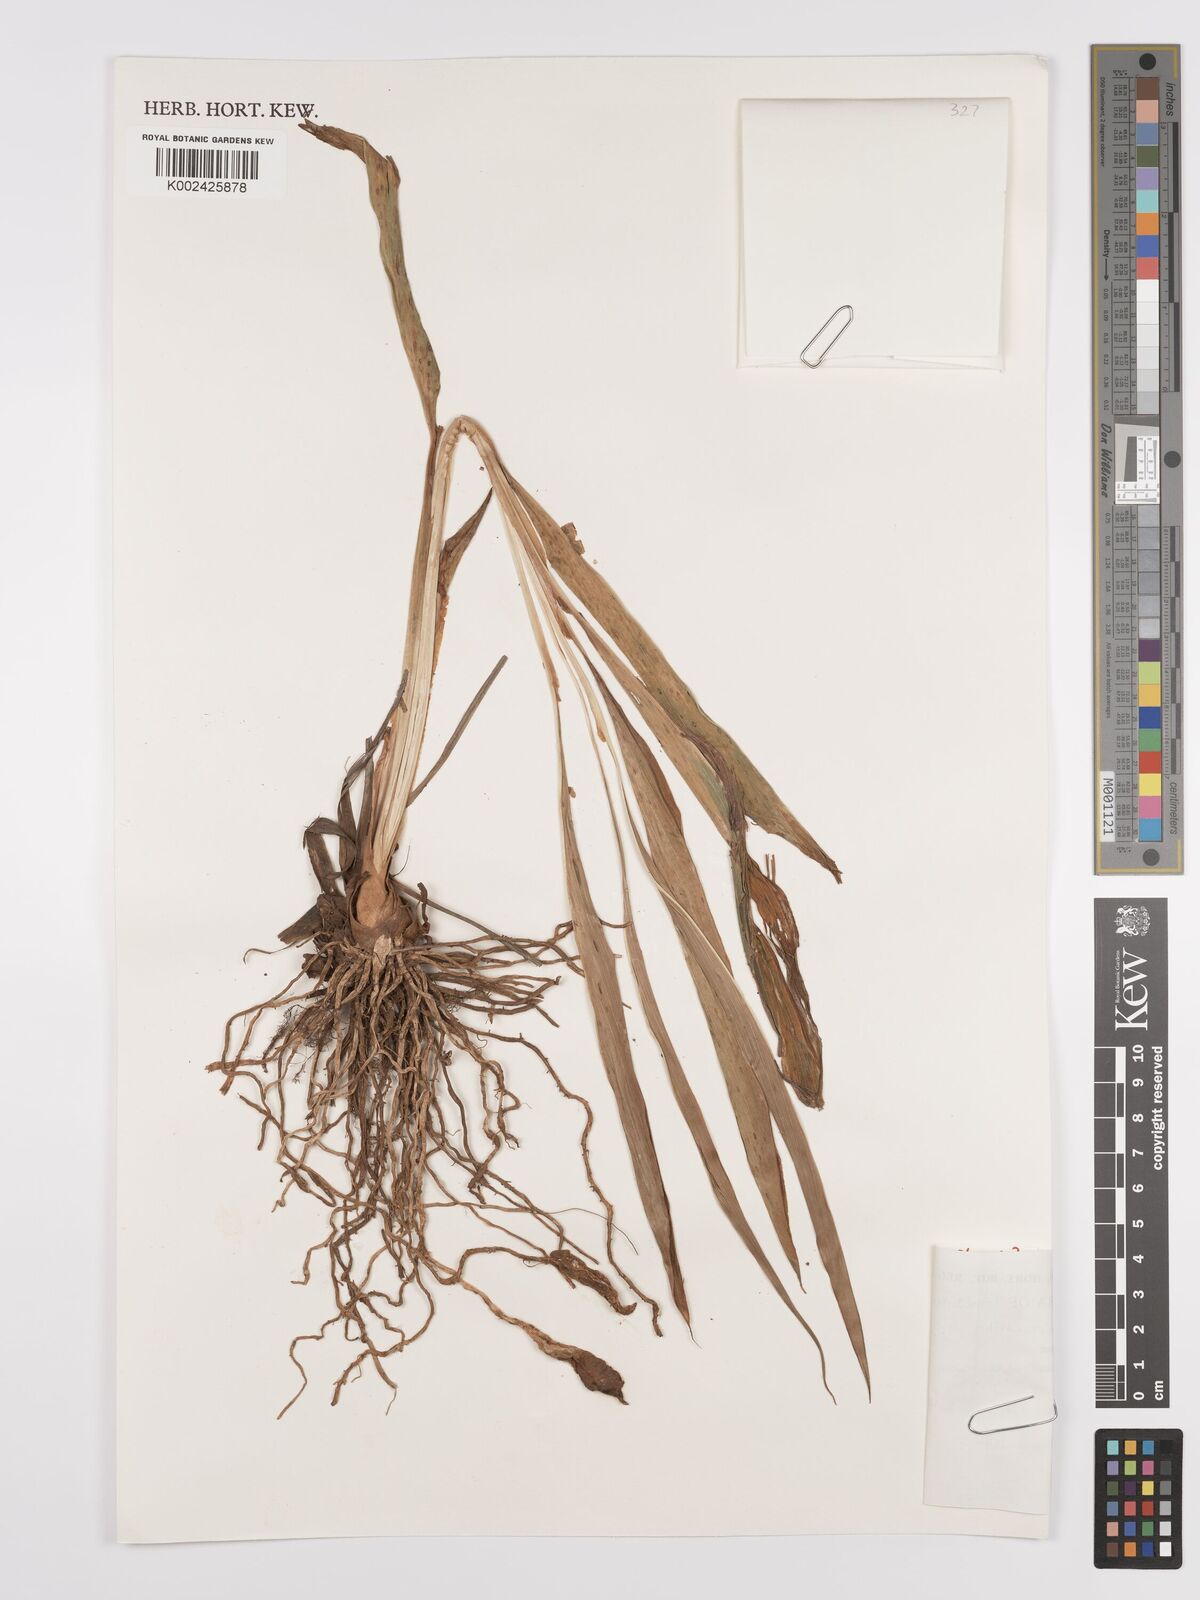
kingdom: Plantae
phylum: Tracheophyta
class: Liliopsida
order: Zingiberales
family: Zingiberaceae
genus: Siphonochilus
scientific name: Siphonochilus rhodesicus
